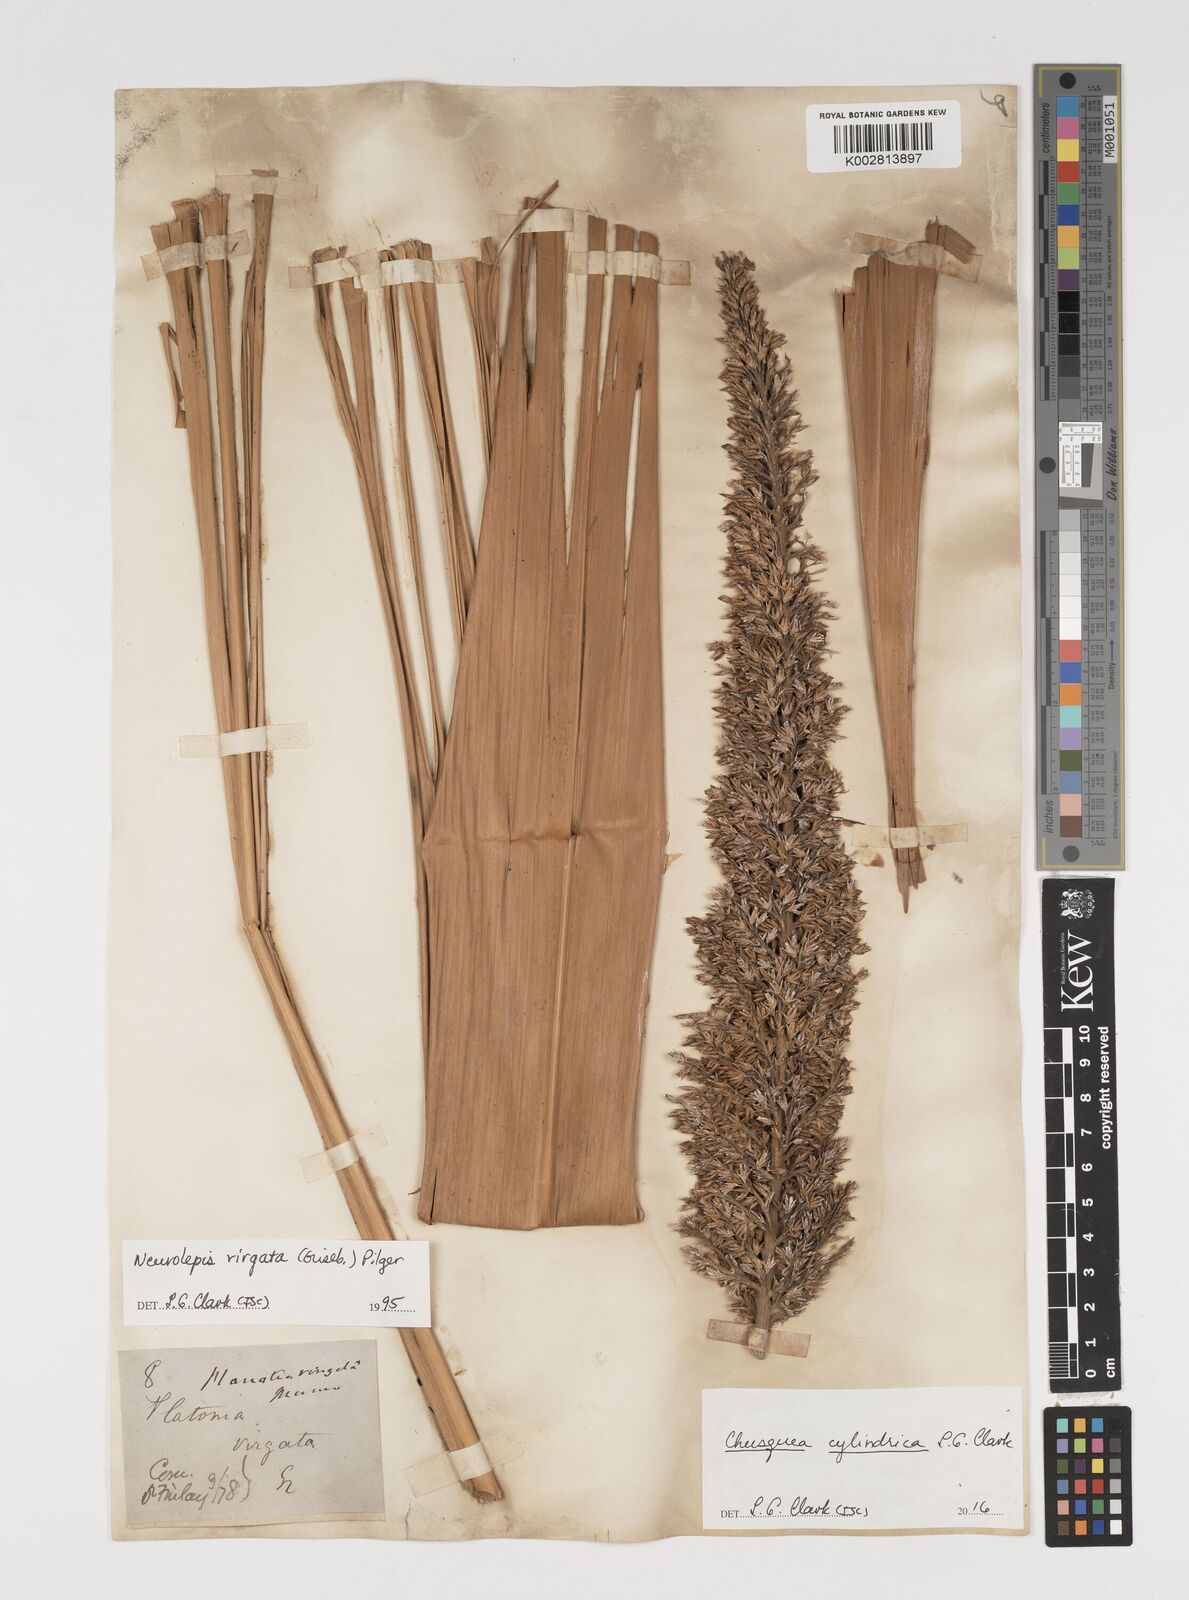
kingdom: Plantae
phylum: Tracheophyta
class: Liliopsida
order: Poales
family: Poaceae
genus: Chusquea
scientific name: Chusquea cylindrica
